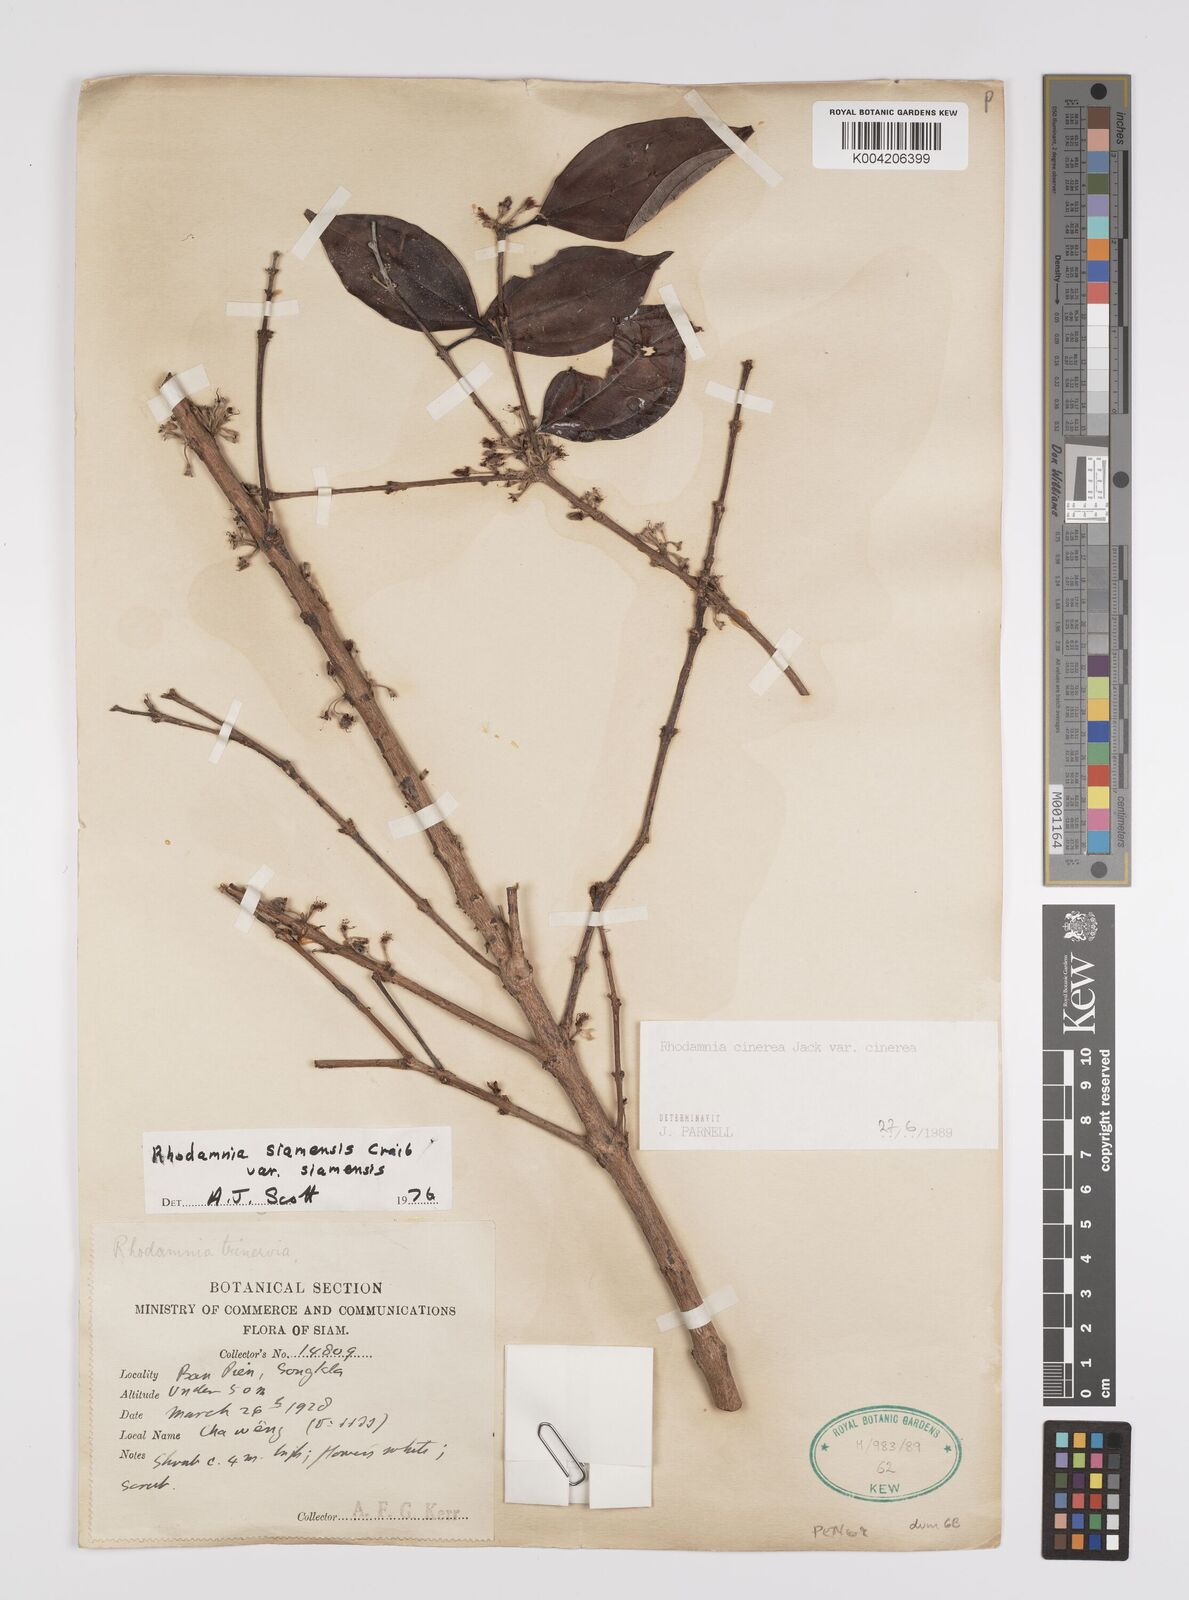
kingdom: Plantae
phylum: Tracheophyta
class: Magnoliopsida
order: Myrtales
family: Myrtaceae
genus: Rhodamnia
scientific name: Rhodamnia cinerea
